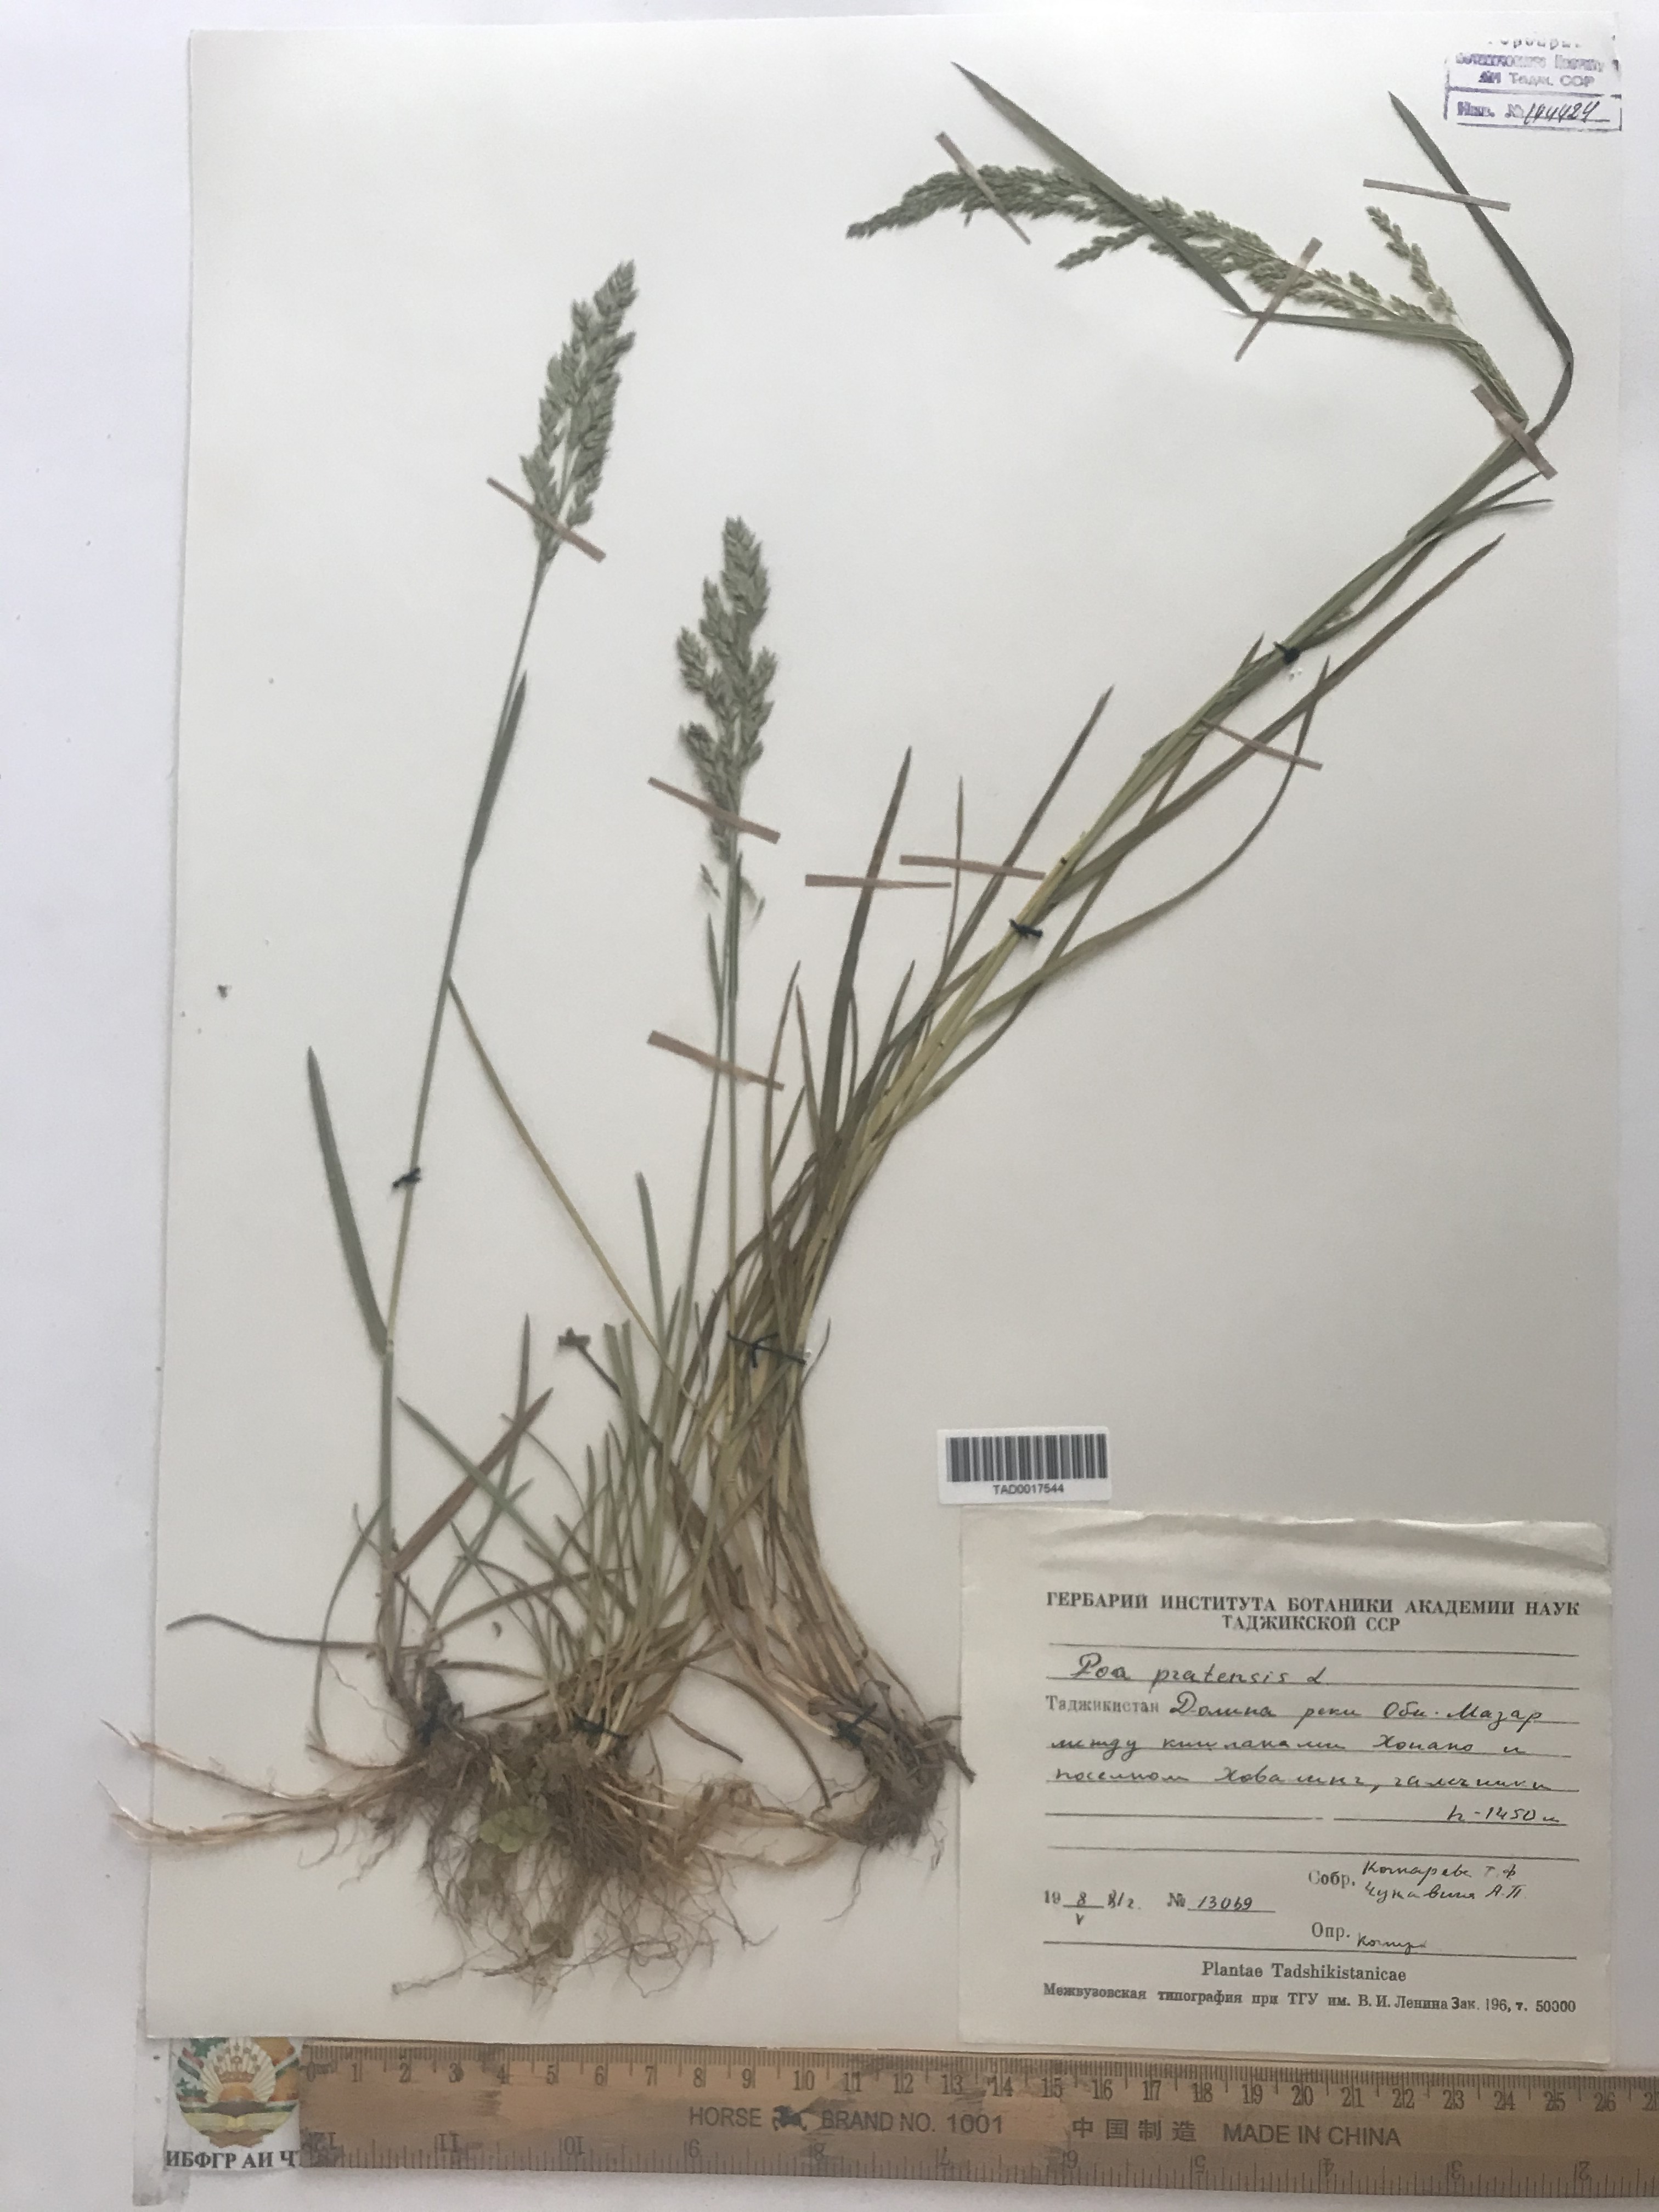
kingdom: Plantae
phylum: Tracheophyta
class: Liliopsida
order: Poales
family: Poaceae
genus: Poa
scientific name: Poa pratensis
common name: Kentucky bluegrass
